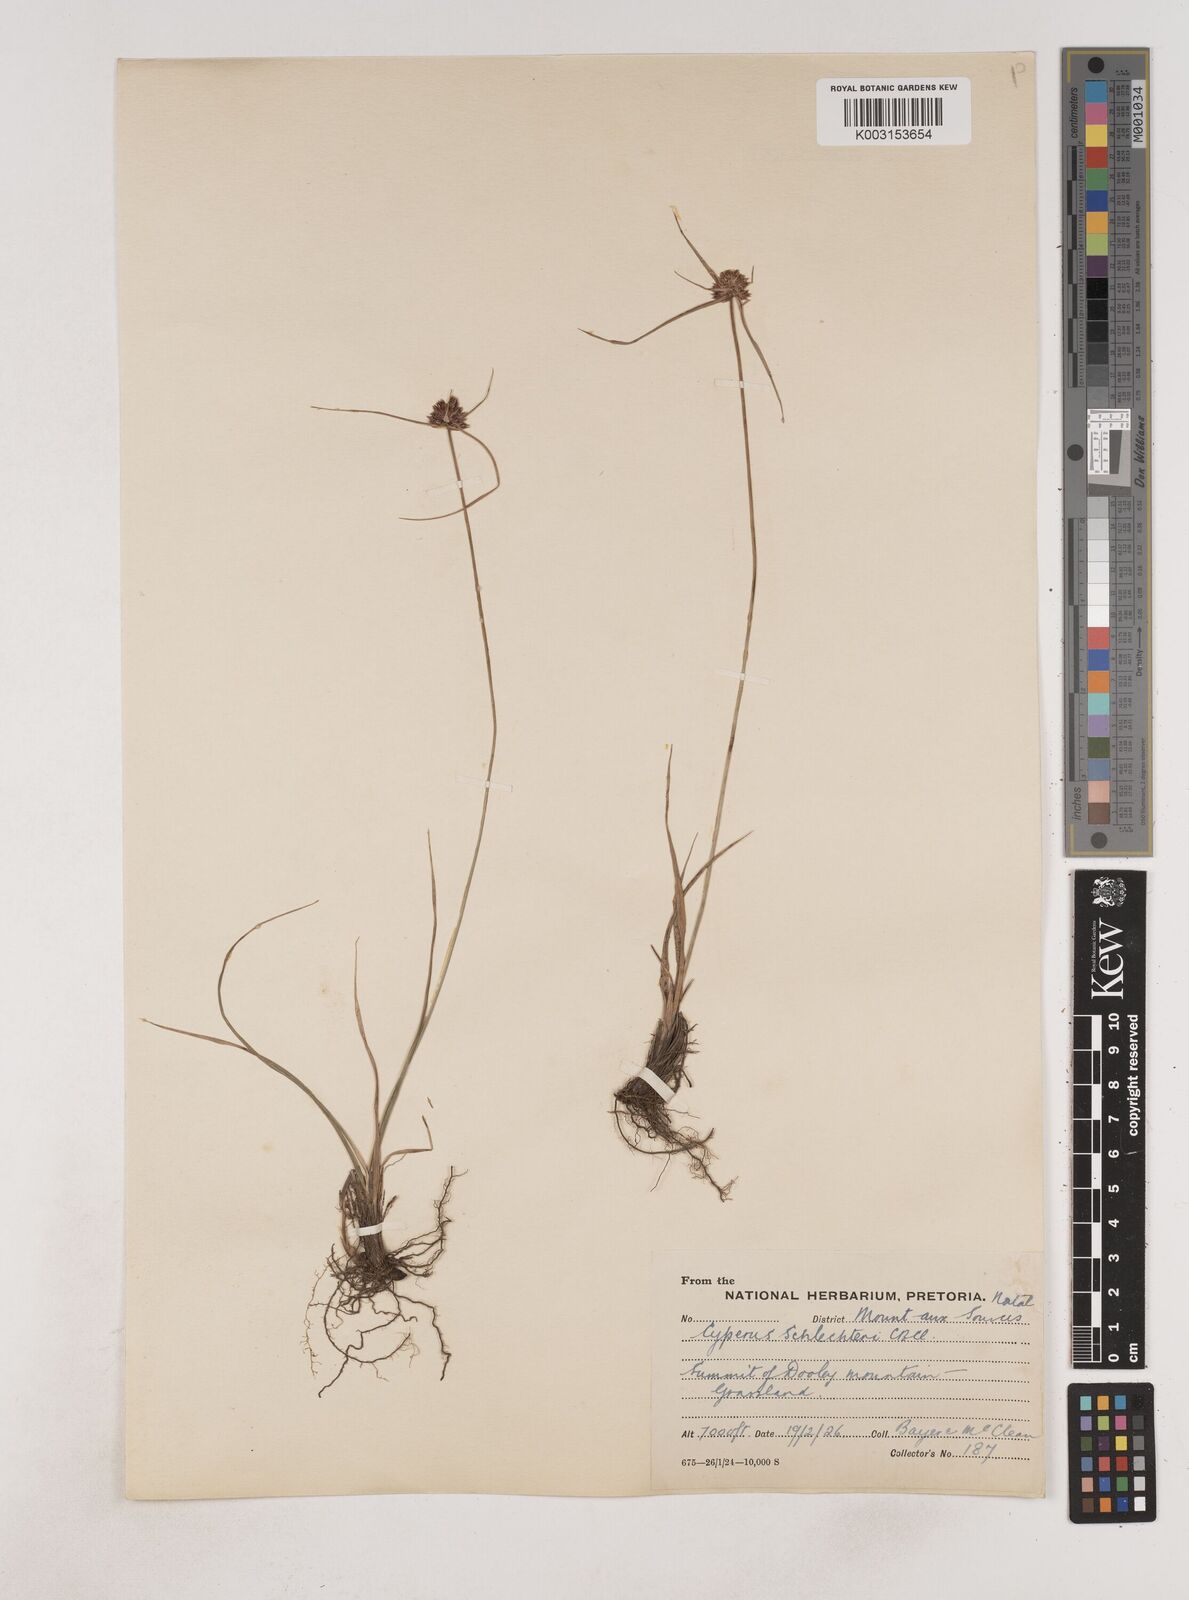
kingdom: Plantae
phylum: Tracheophyta
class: Liliopsida
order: Poales
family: Cyperaceae
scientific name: Cyperaceae
